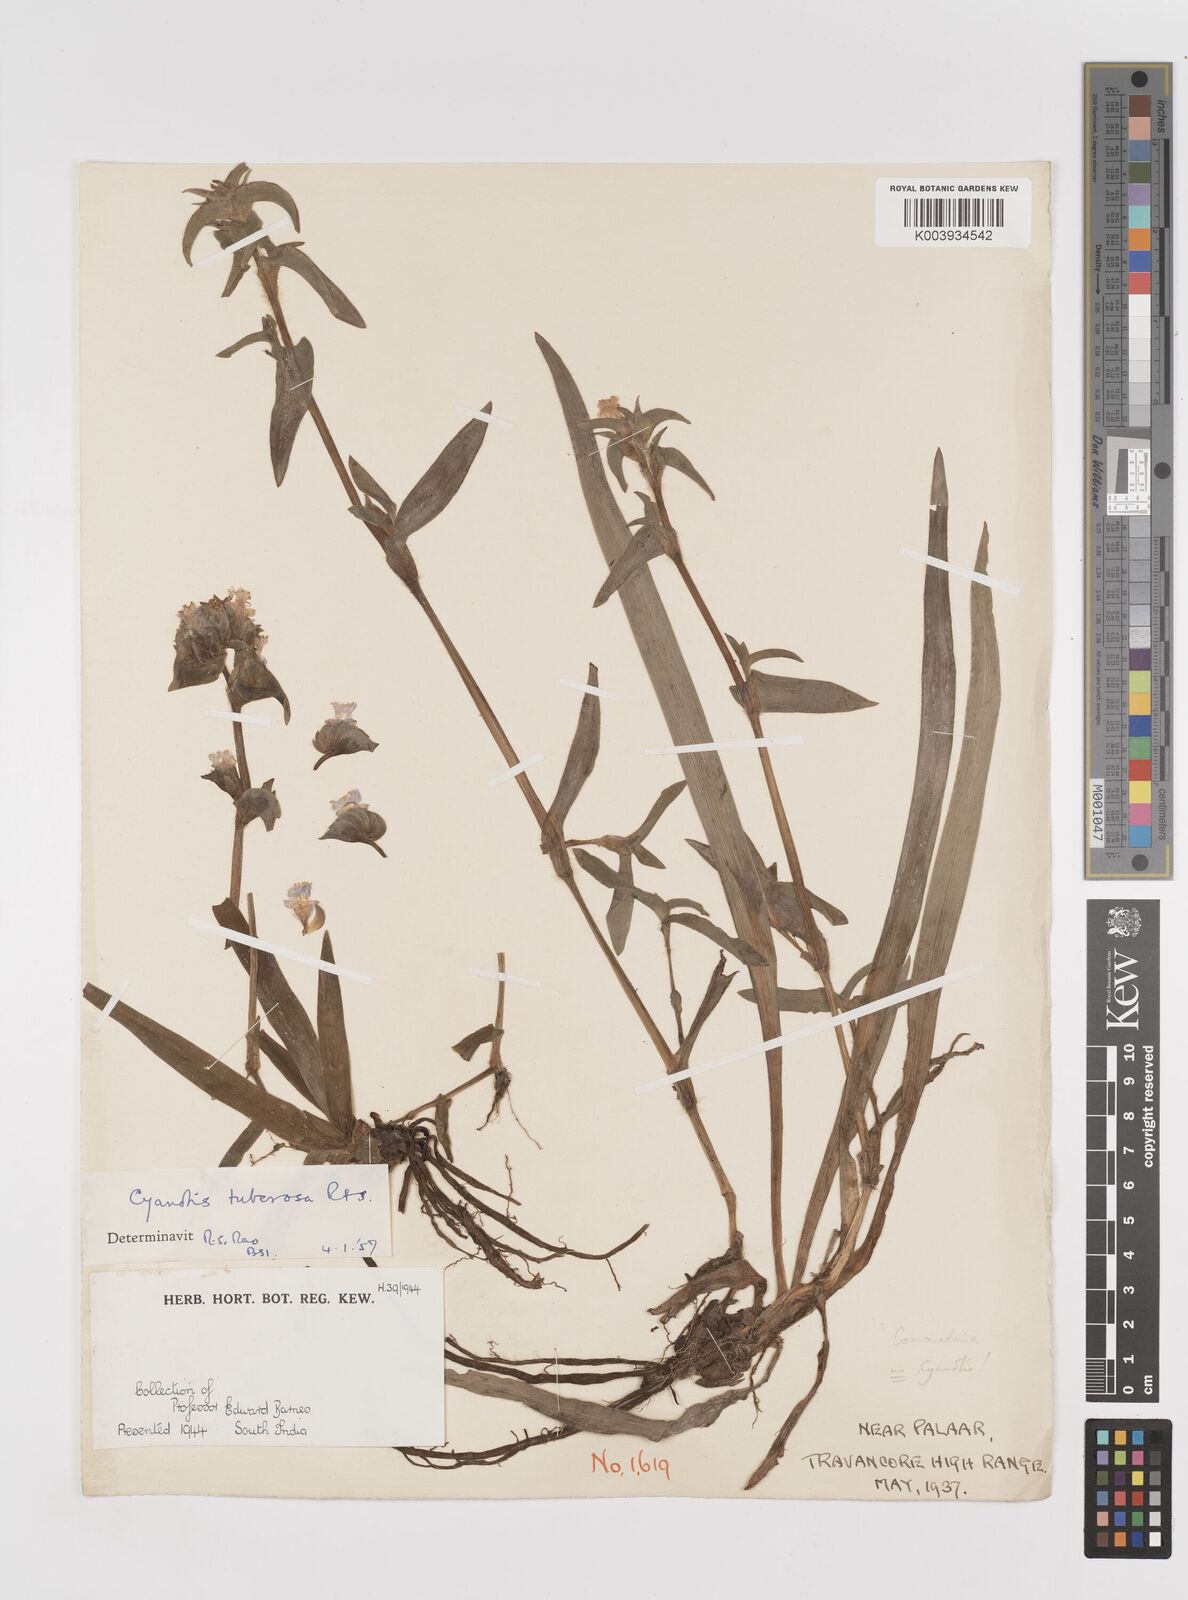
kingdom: Plantae
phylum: Tracheophyta
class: Liliopsida
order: Commelinales
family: Commelinaceae
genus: Cyanotis
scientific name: Cyanotis tuberosa
